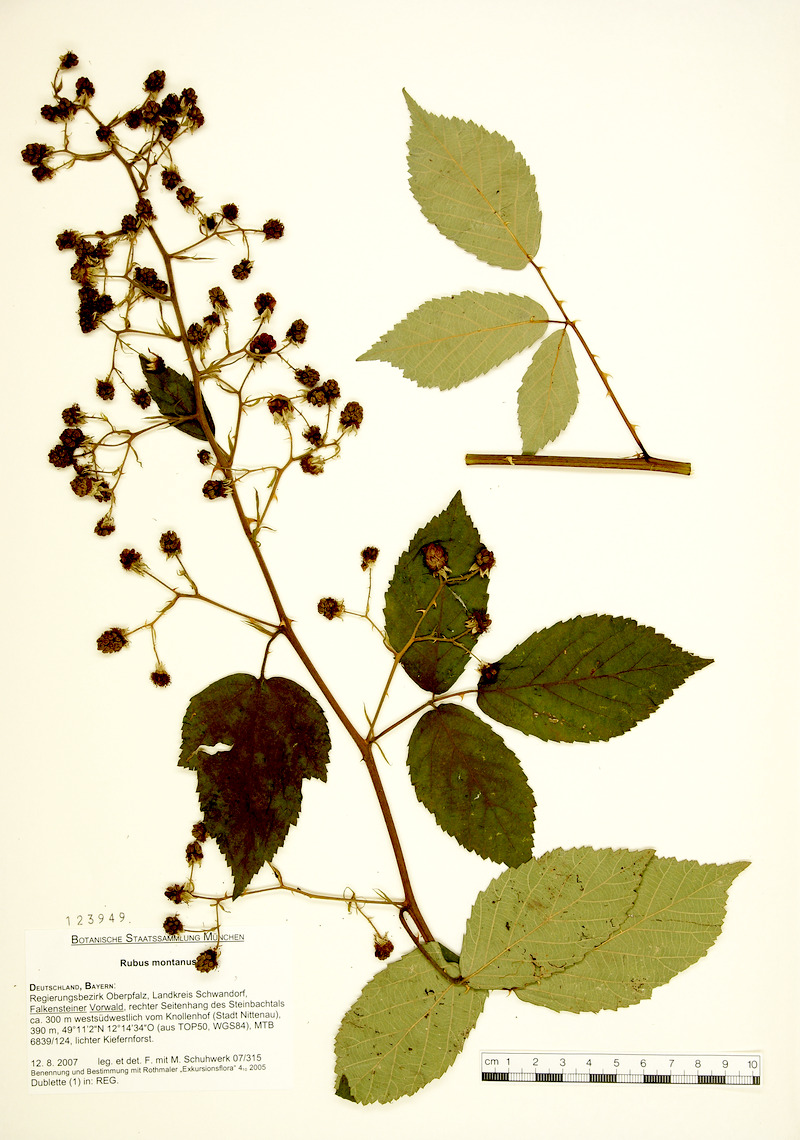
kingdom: Plantae
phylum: Tracheophyta
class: Magnoliopsida
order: Rosales
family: Rosaceae
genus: Rubus
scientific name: Rubus montanus
